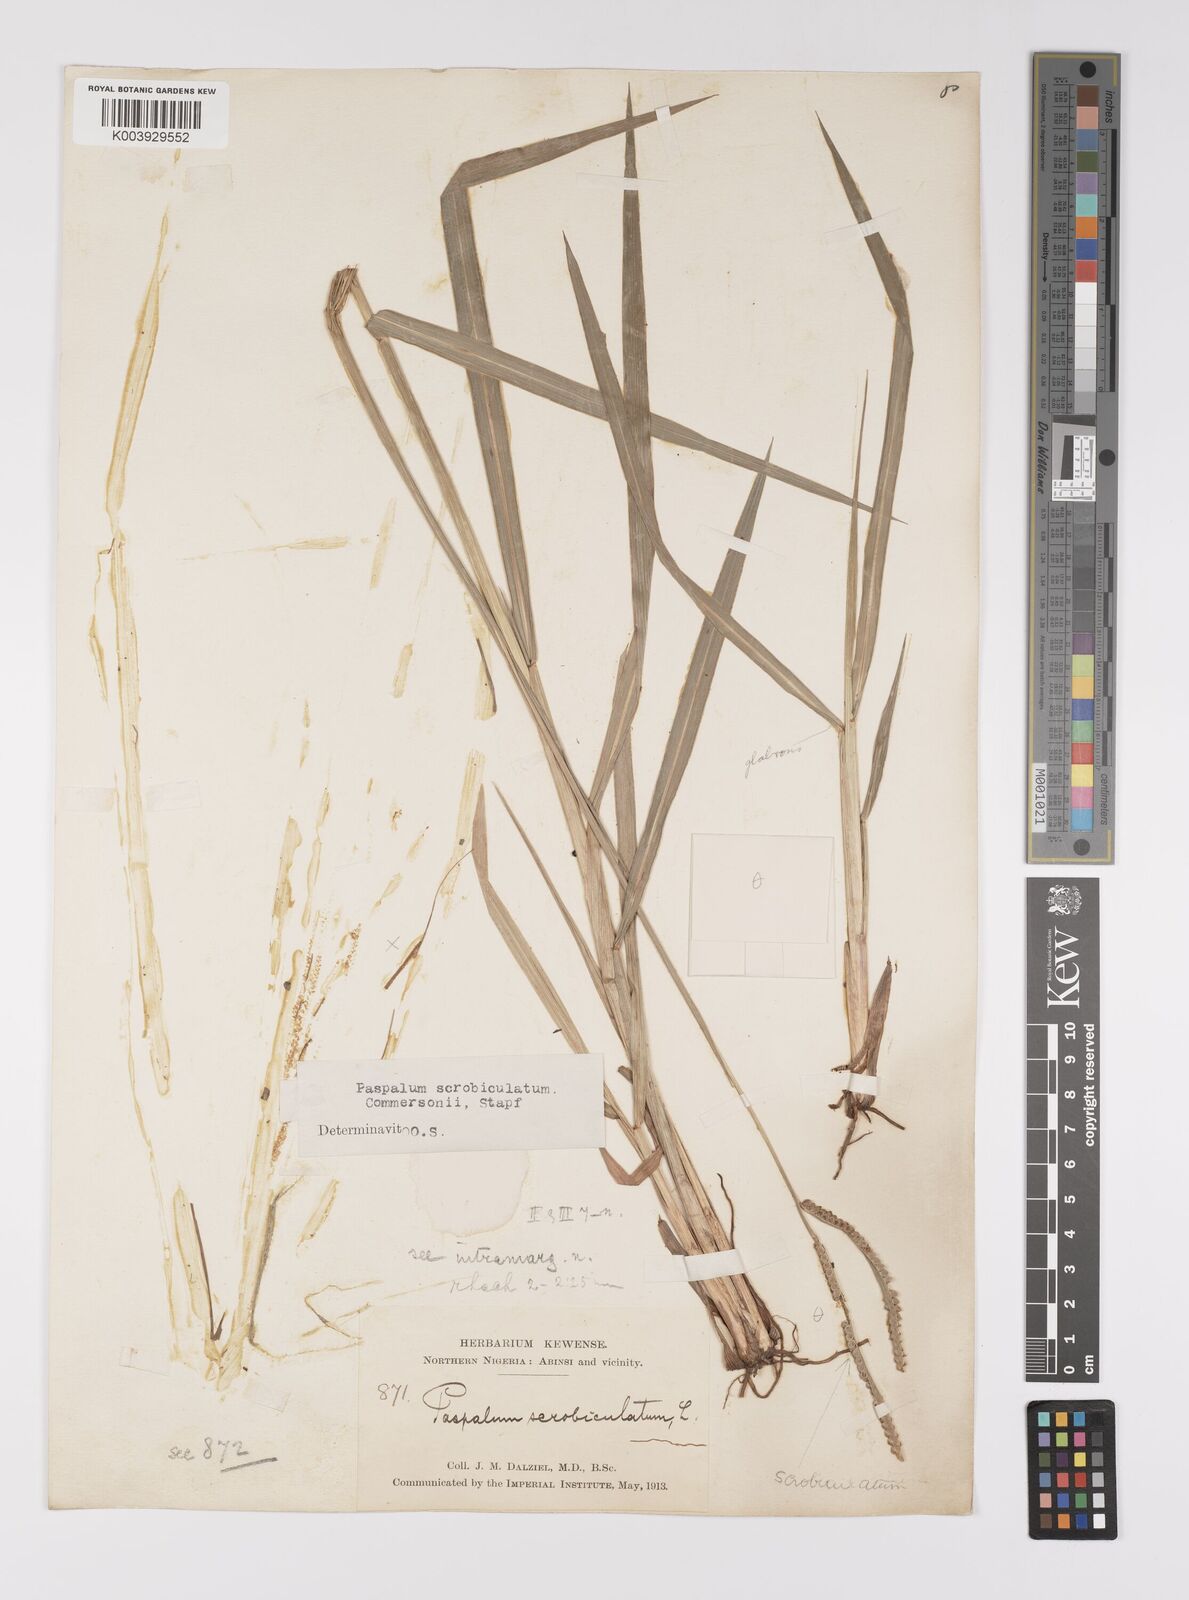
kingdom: Plantae
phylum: Tracheophyta
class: Liliopsida
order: Poales
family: Poaceae
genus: Paspalum
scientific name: Paspalum scrobiculatum
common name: Kodo millet
